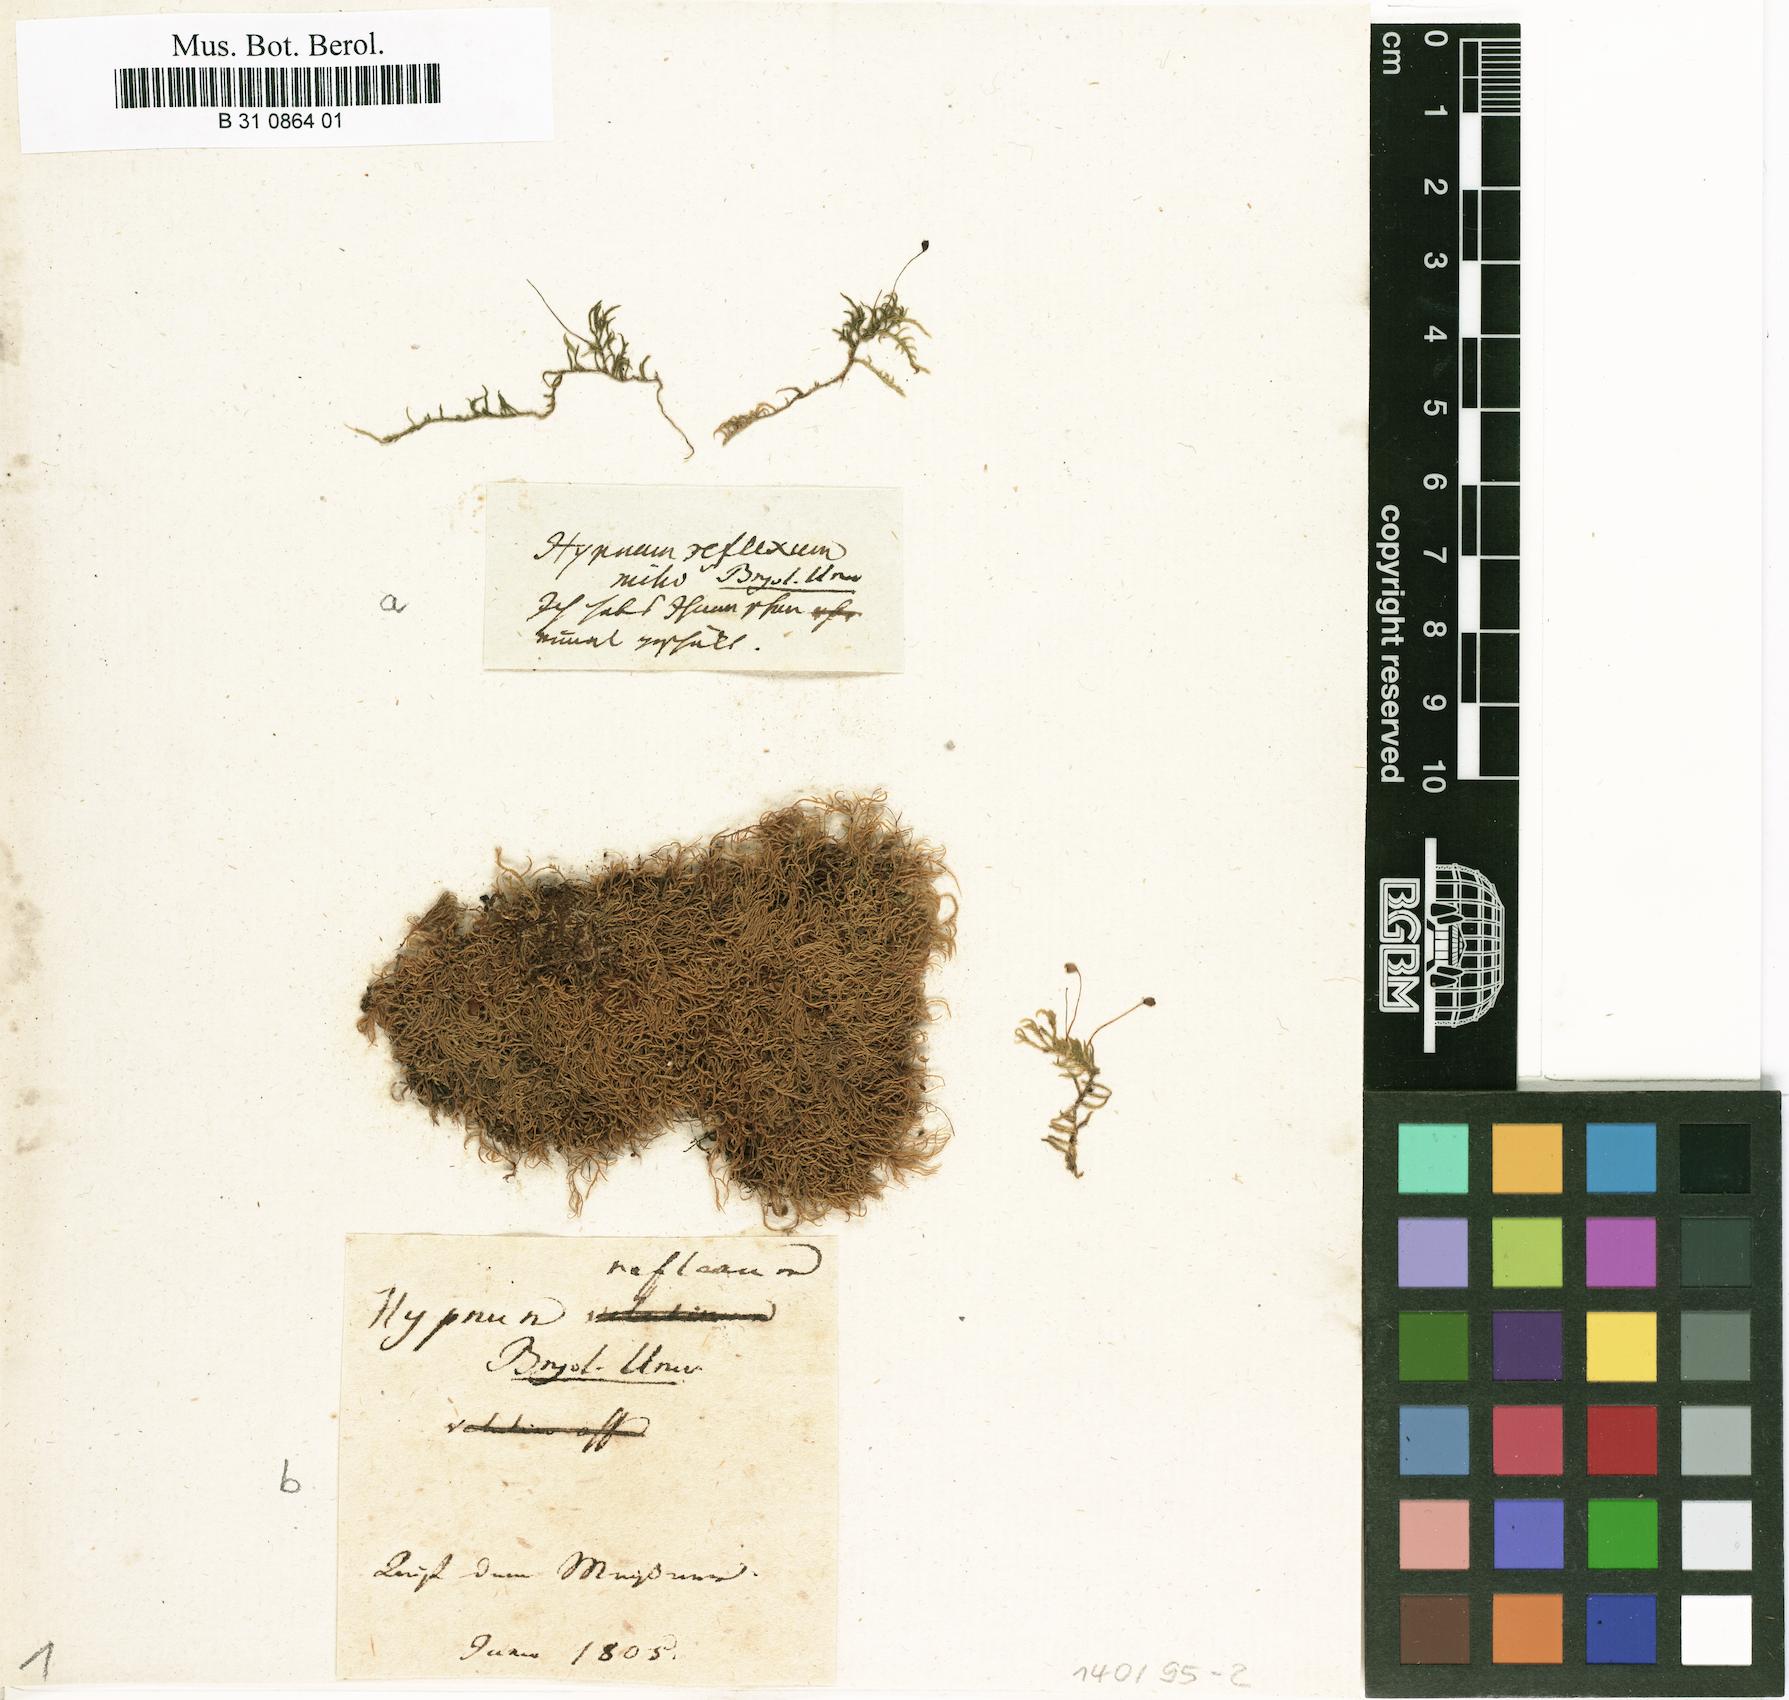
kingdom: Plantae
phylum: Bryophyta
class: Bryopsida
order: Hypnales
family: Brachytheciaceae
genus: Sciuro-hypnum
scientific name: Sciuro-hypnum reflexum
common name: Reflexed feather-moss
